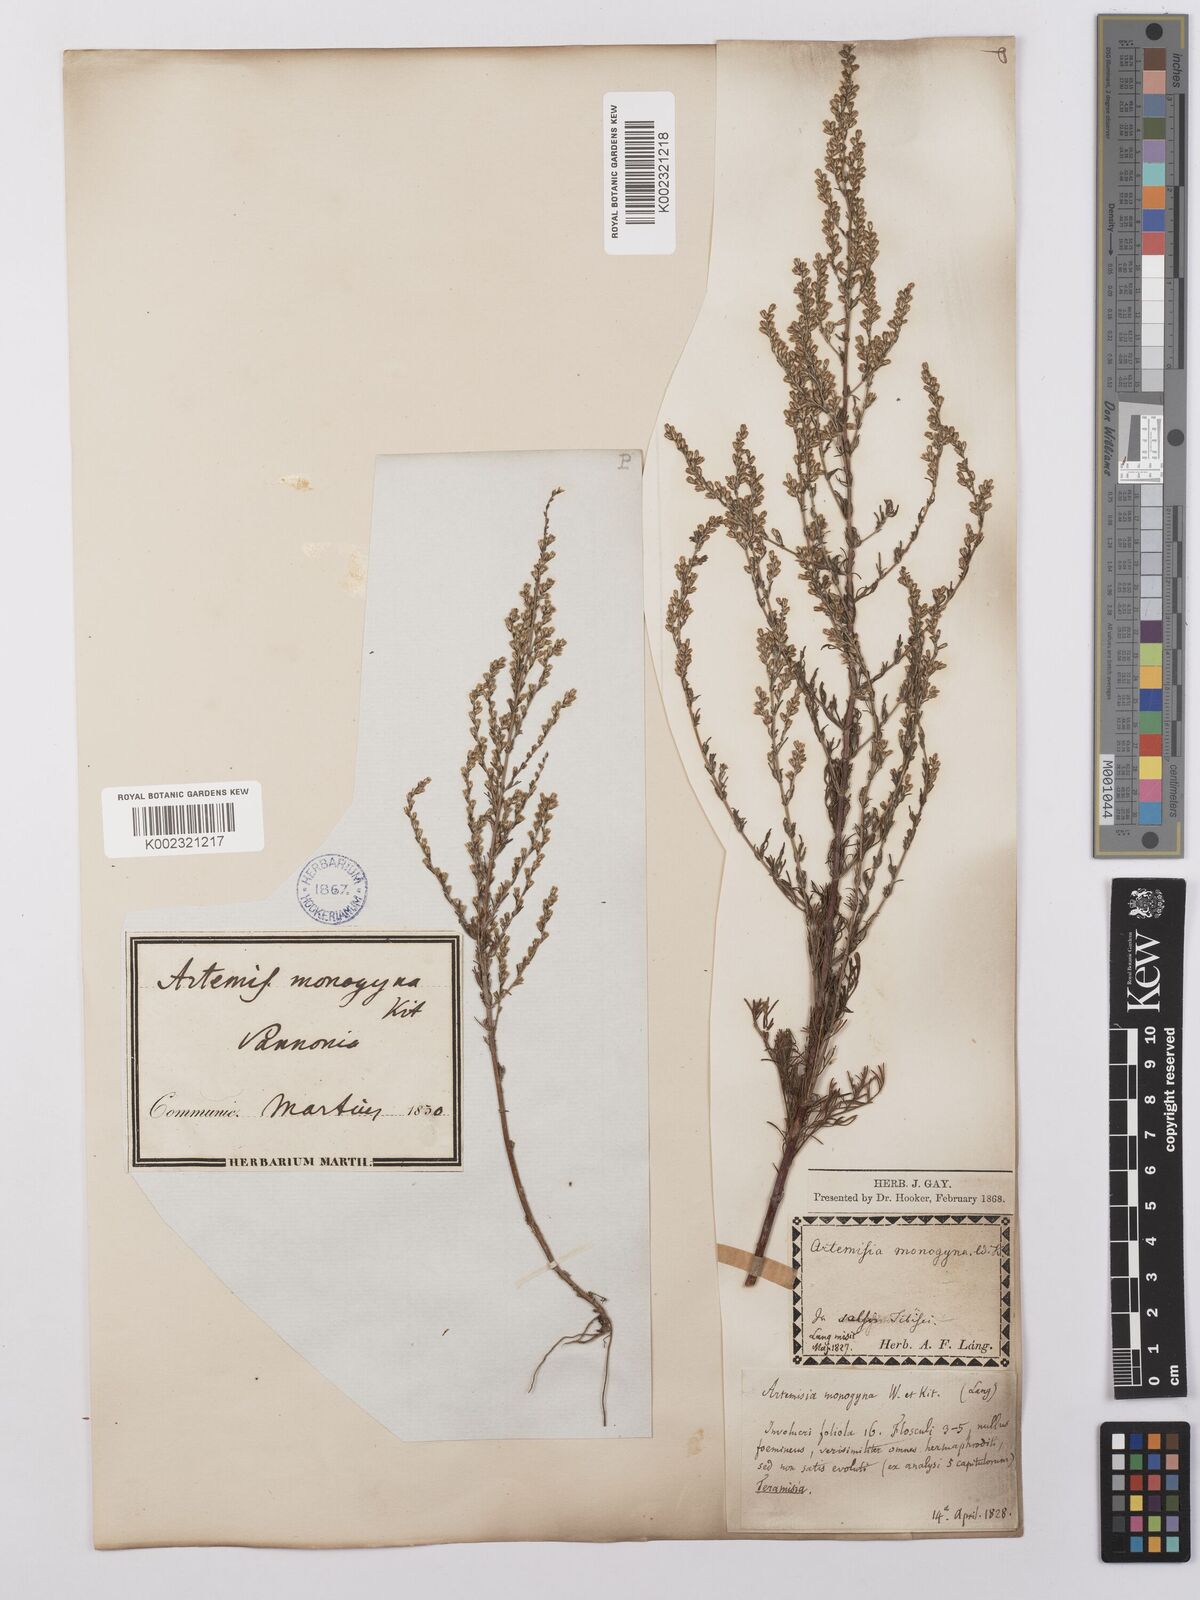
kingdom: Plantae
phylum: Tracheophyta
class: Magnoliopsida
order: Asterales
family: Asteraceae
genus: Artemisia
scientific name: Artemisia maritima
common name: Wormseed
